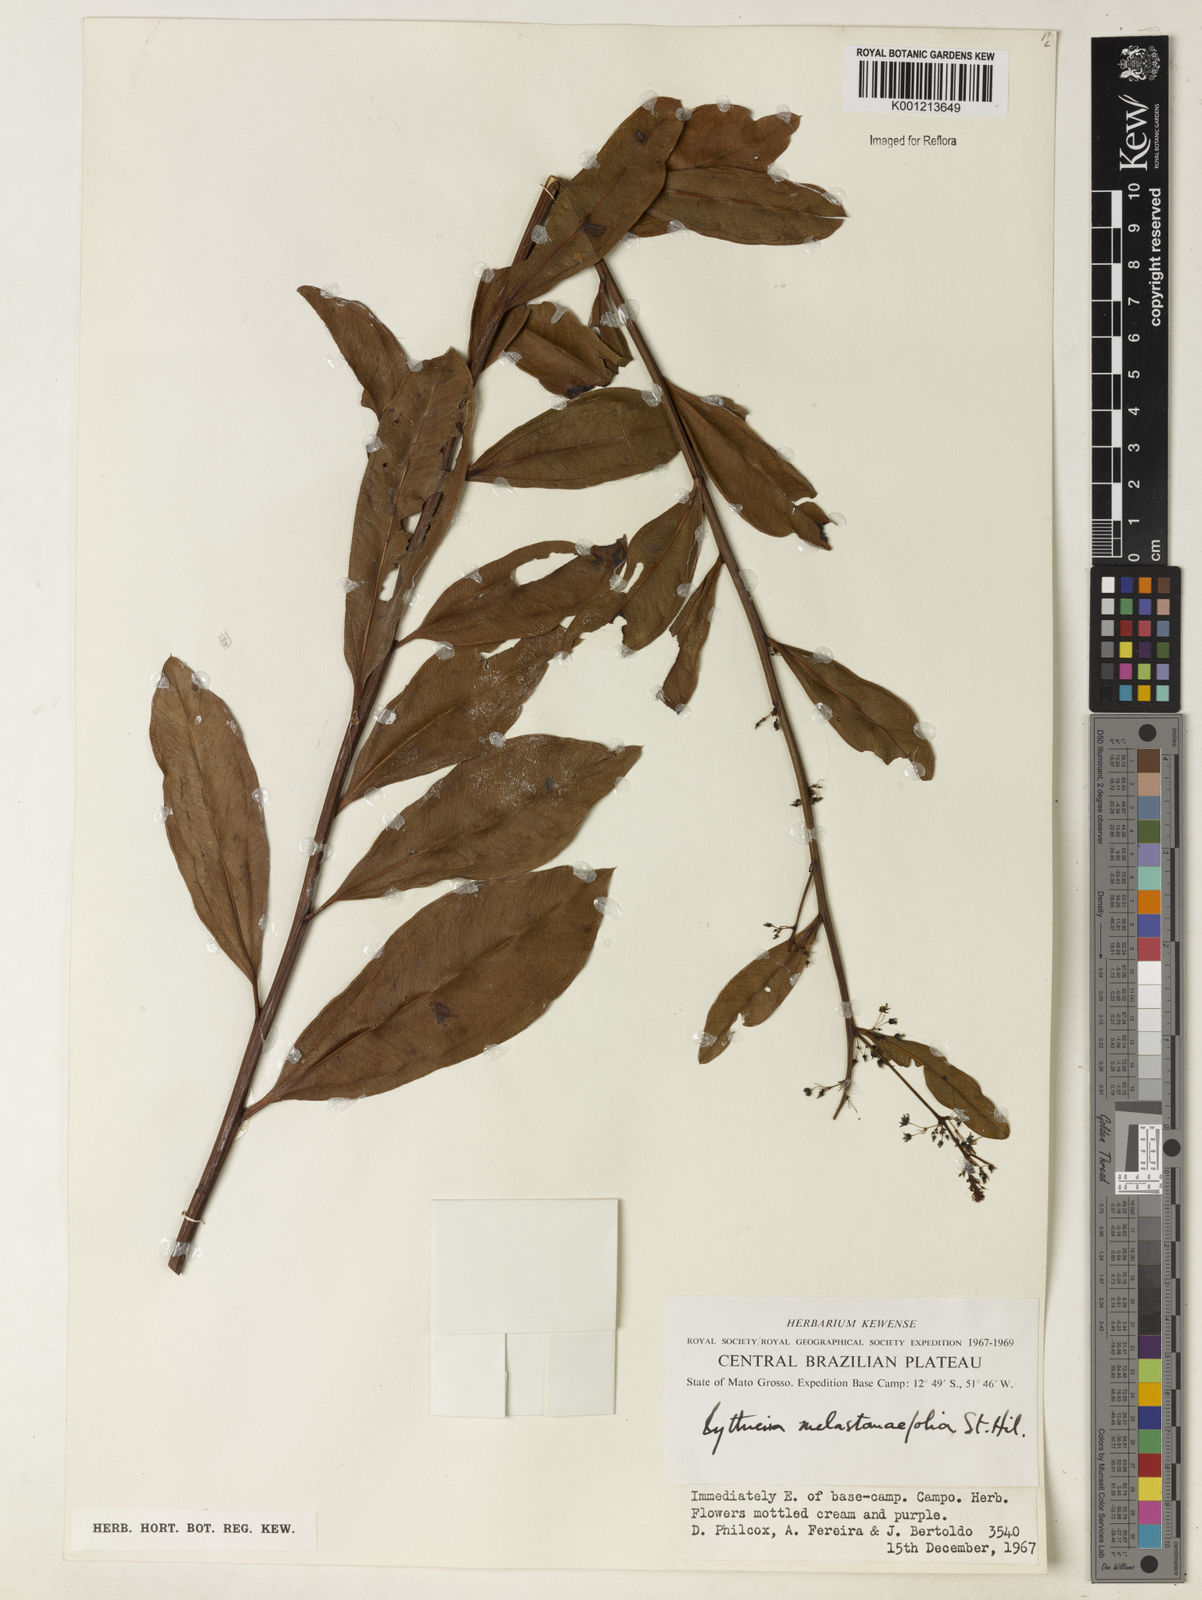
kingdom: Plantae
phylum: Tracheophyta
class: Magnoliopsida
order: Malvales
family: Malvaceae
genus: Byttneria
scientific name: Byttneria melastomifolia
